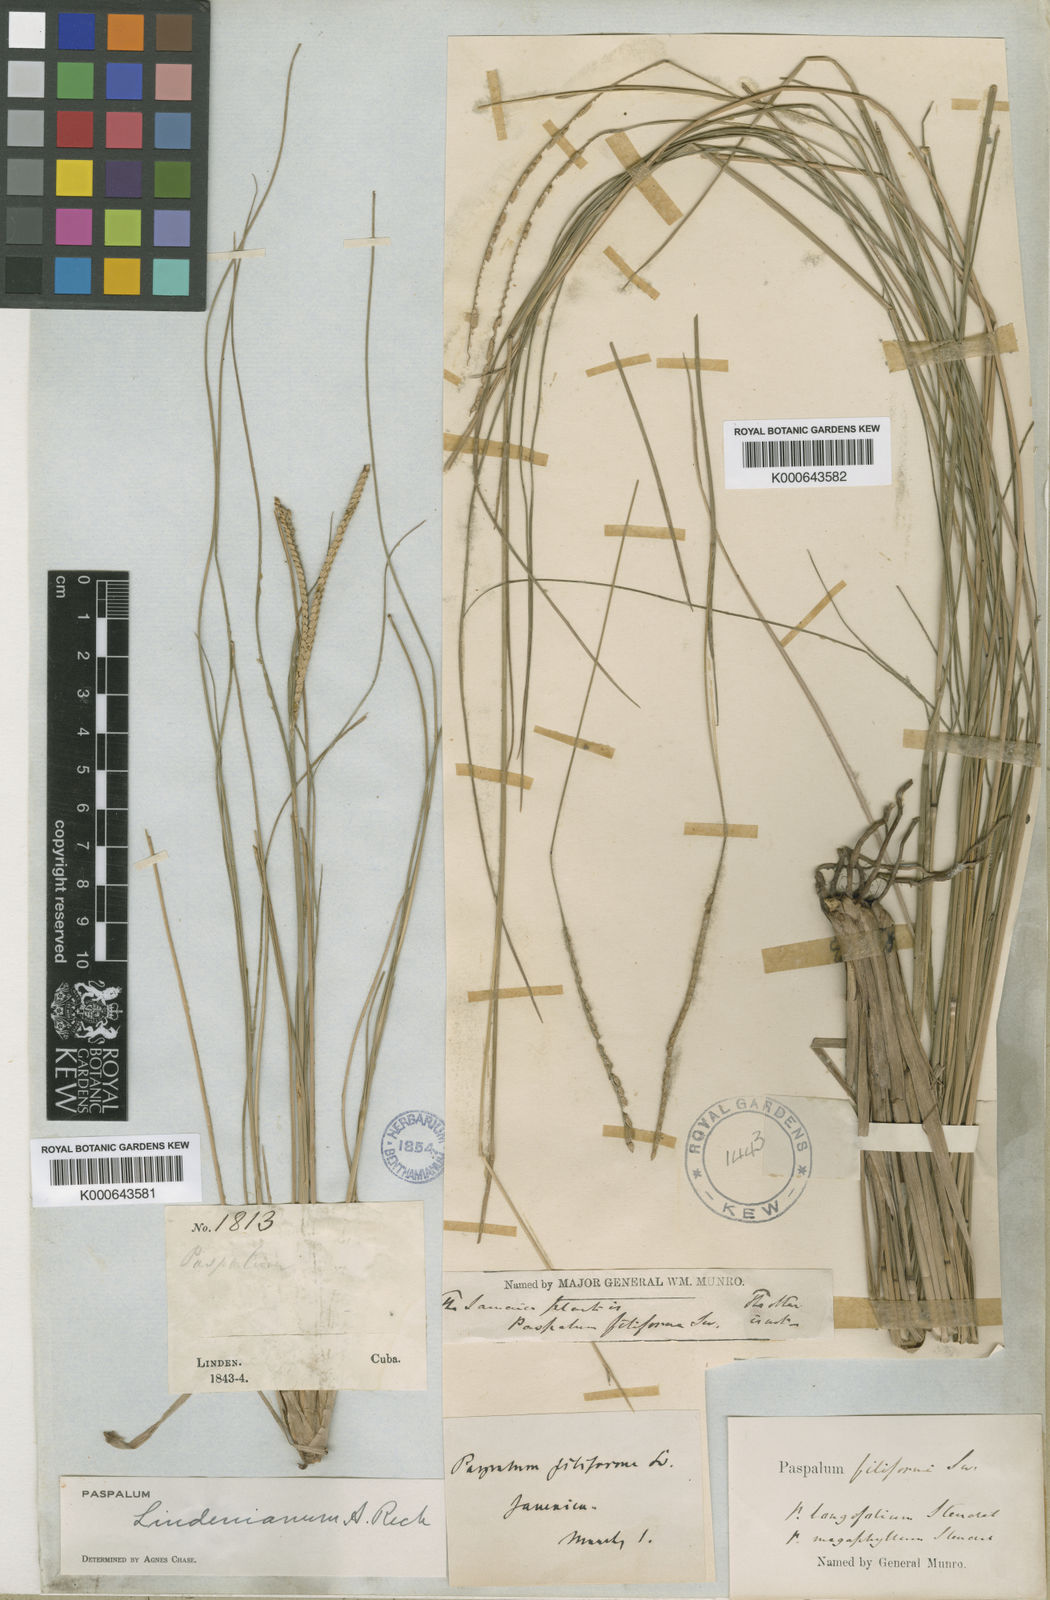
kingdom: Plantae
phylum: Tracheophyta
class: Liliopsida
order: Poales
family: Poaceae
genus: Paspalum
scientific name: Paspalum lindenianum
